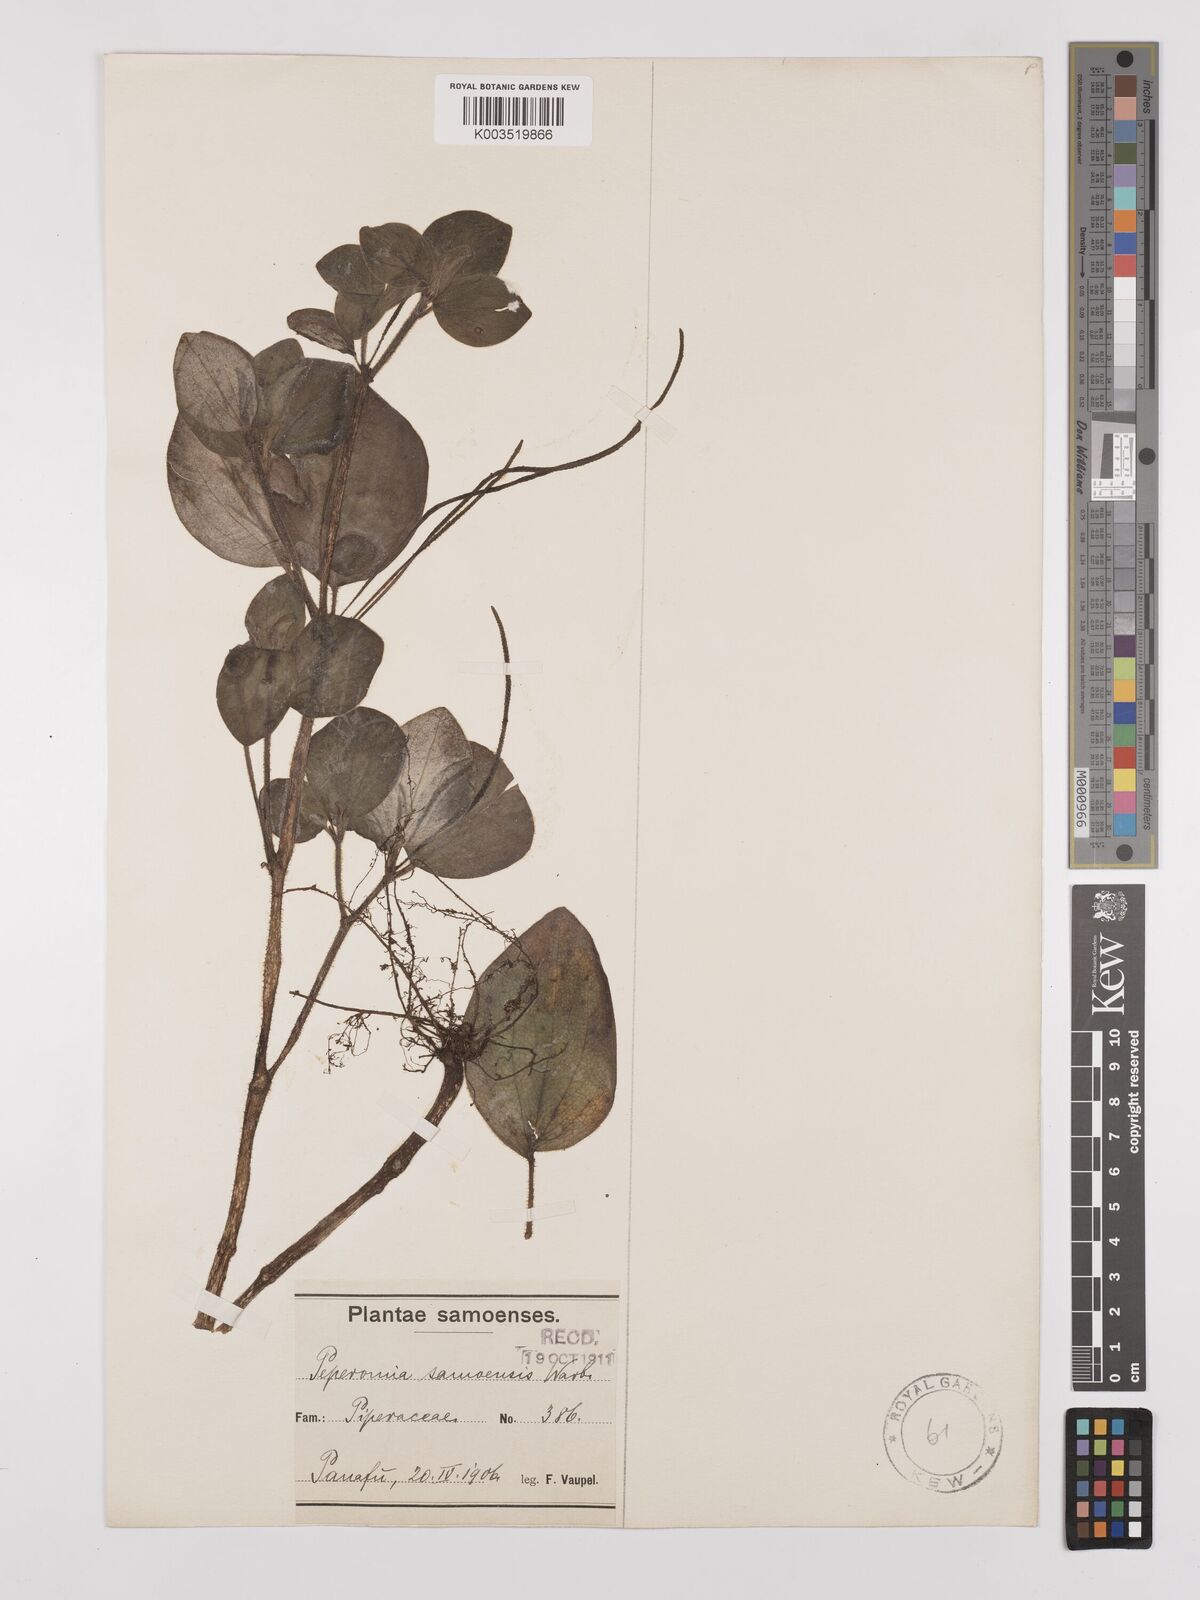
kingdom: Plantae
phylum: Tracheophyta
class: Magnoliopsida
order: Piperales
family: Piperaceae
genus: Peperomia
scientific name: Peperomia samoensis
